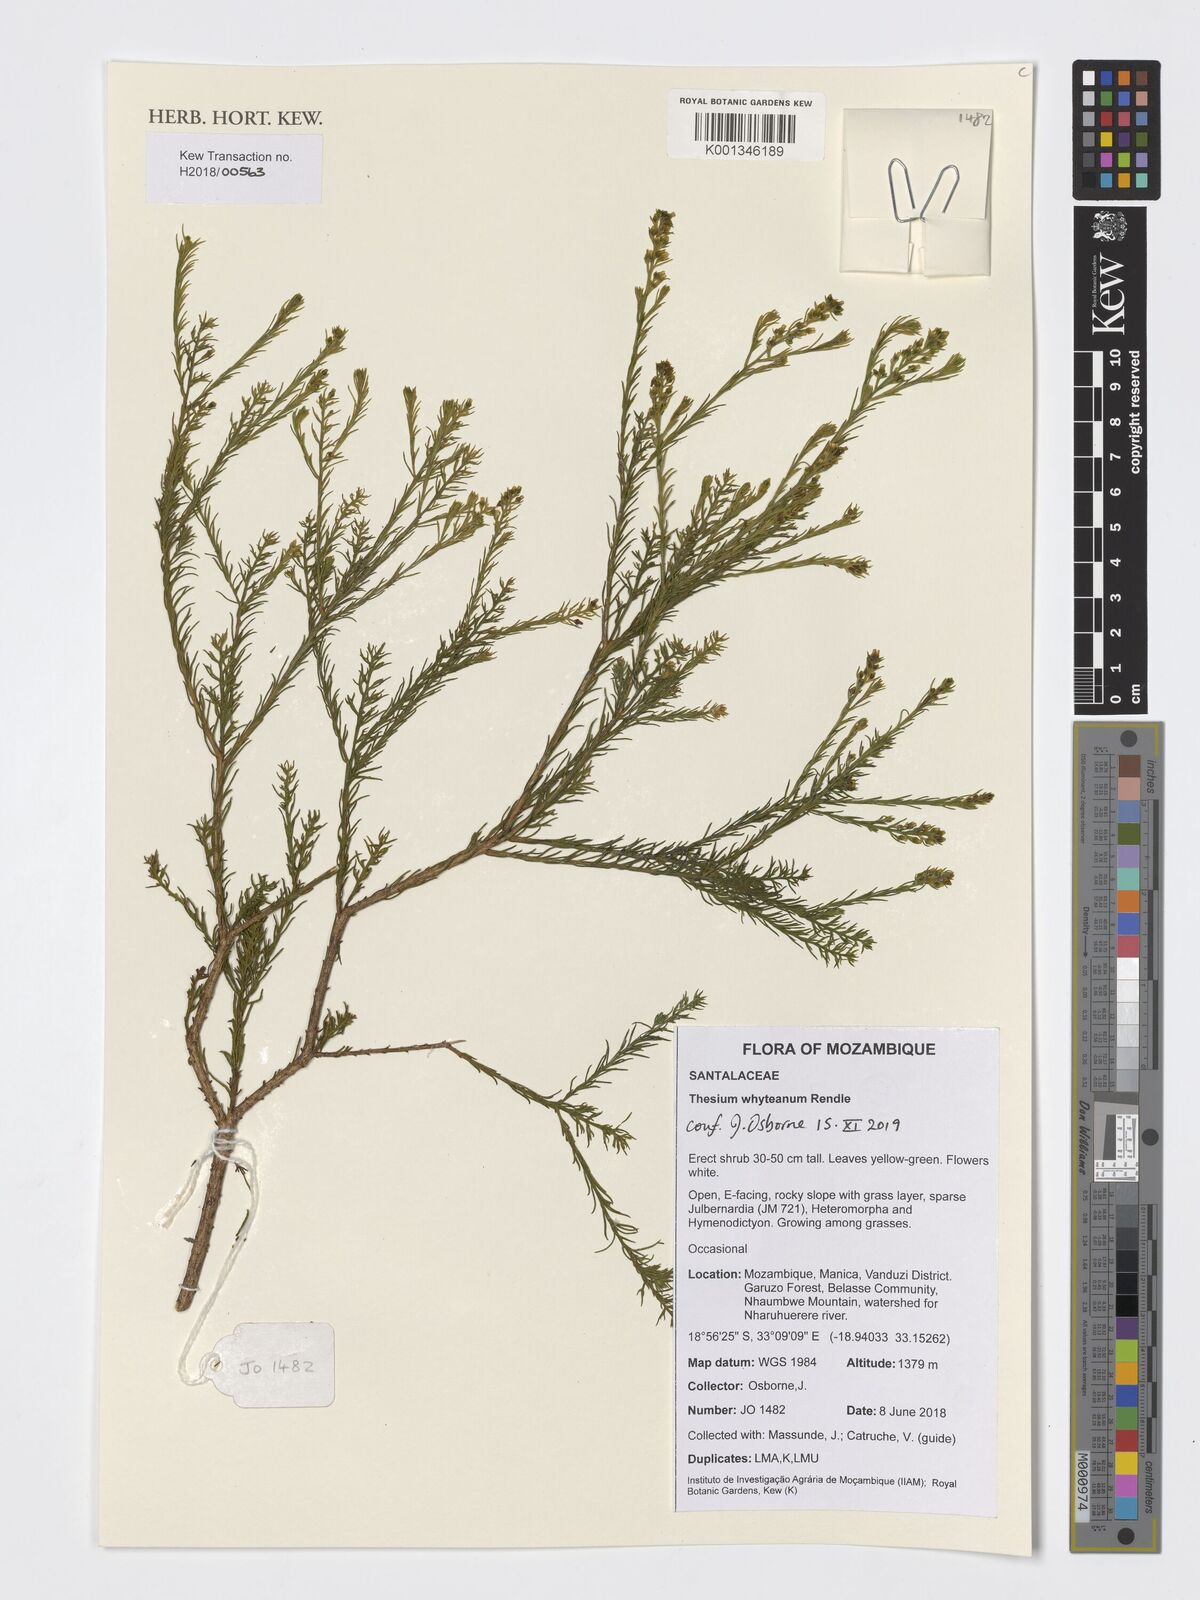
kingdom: Plantae
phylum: Tracheophyta
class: Magnoliopsida
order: Santalales
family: Thesiaceae
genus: Thesium
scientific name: Thesium whyteanum
